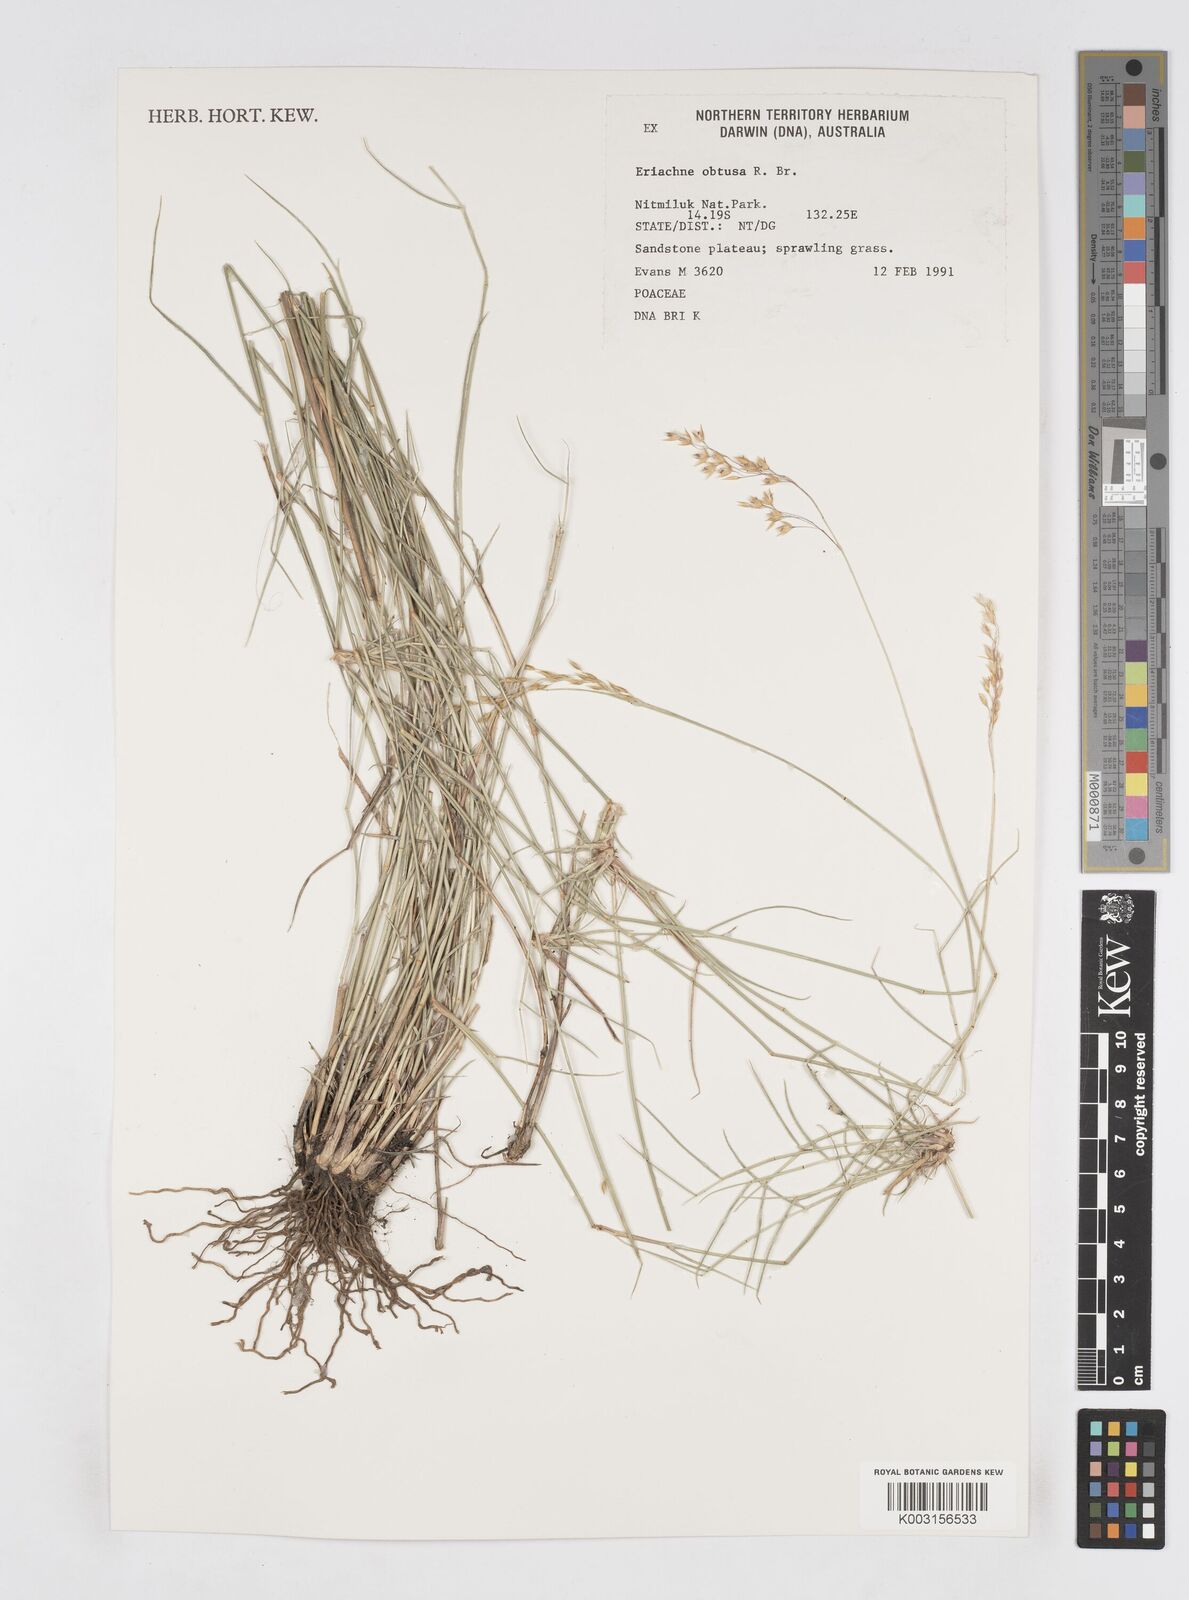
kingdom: Plantae
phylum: Tracheophyta
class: Liliopsida
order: Poales
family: Poaceae
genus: Eriachne
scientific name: Eriachne obtusa
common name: Northern wanderrie grass
